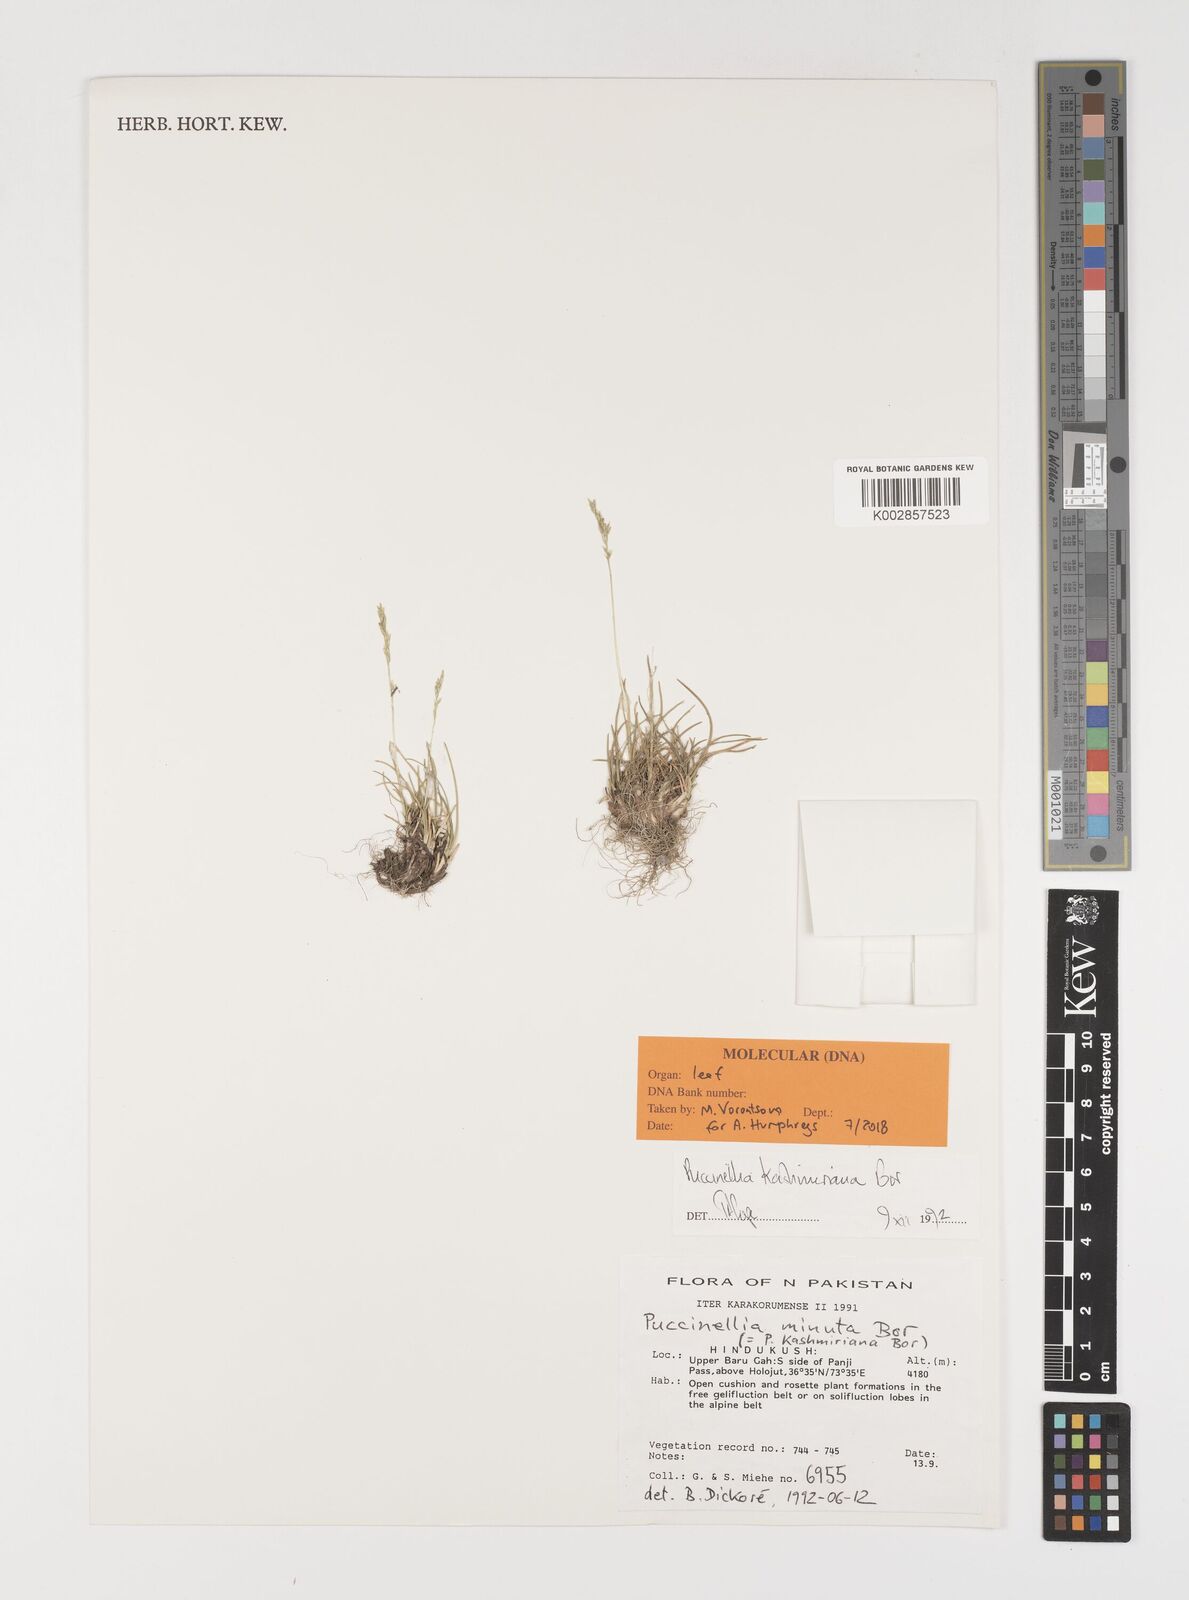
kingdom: Plantae
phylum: Tracheophyta
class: Liliopsida
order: Poales
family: Poaceae
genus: Puccinellia
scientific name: Puccinellia kashmiriana
